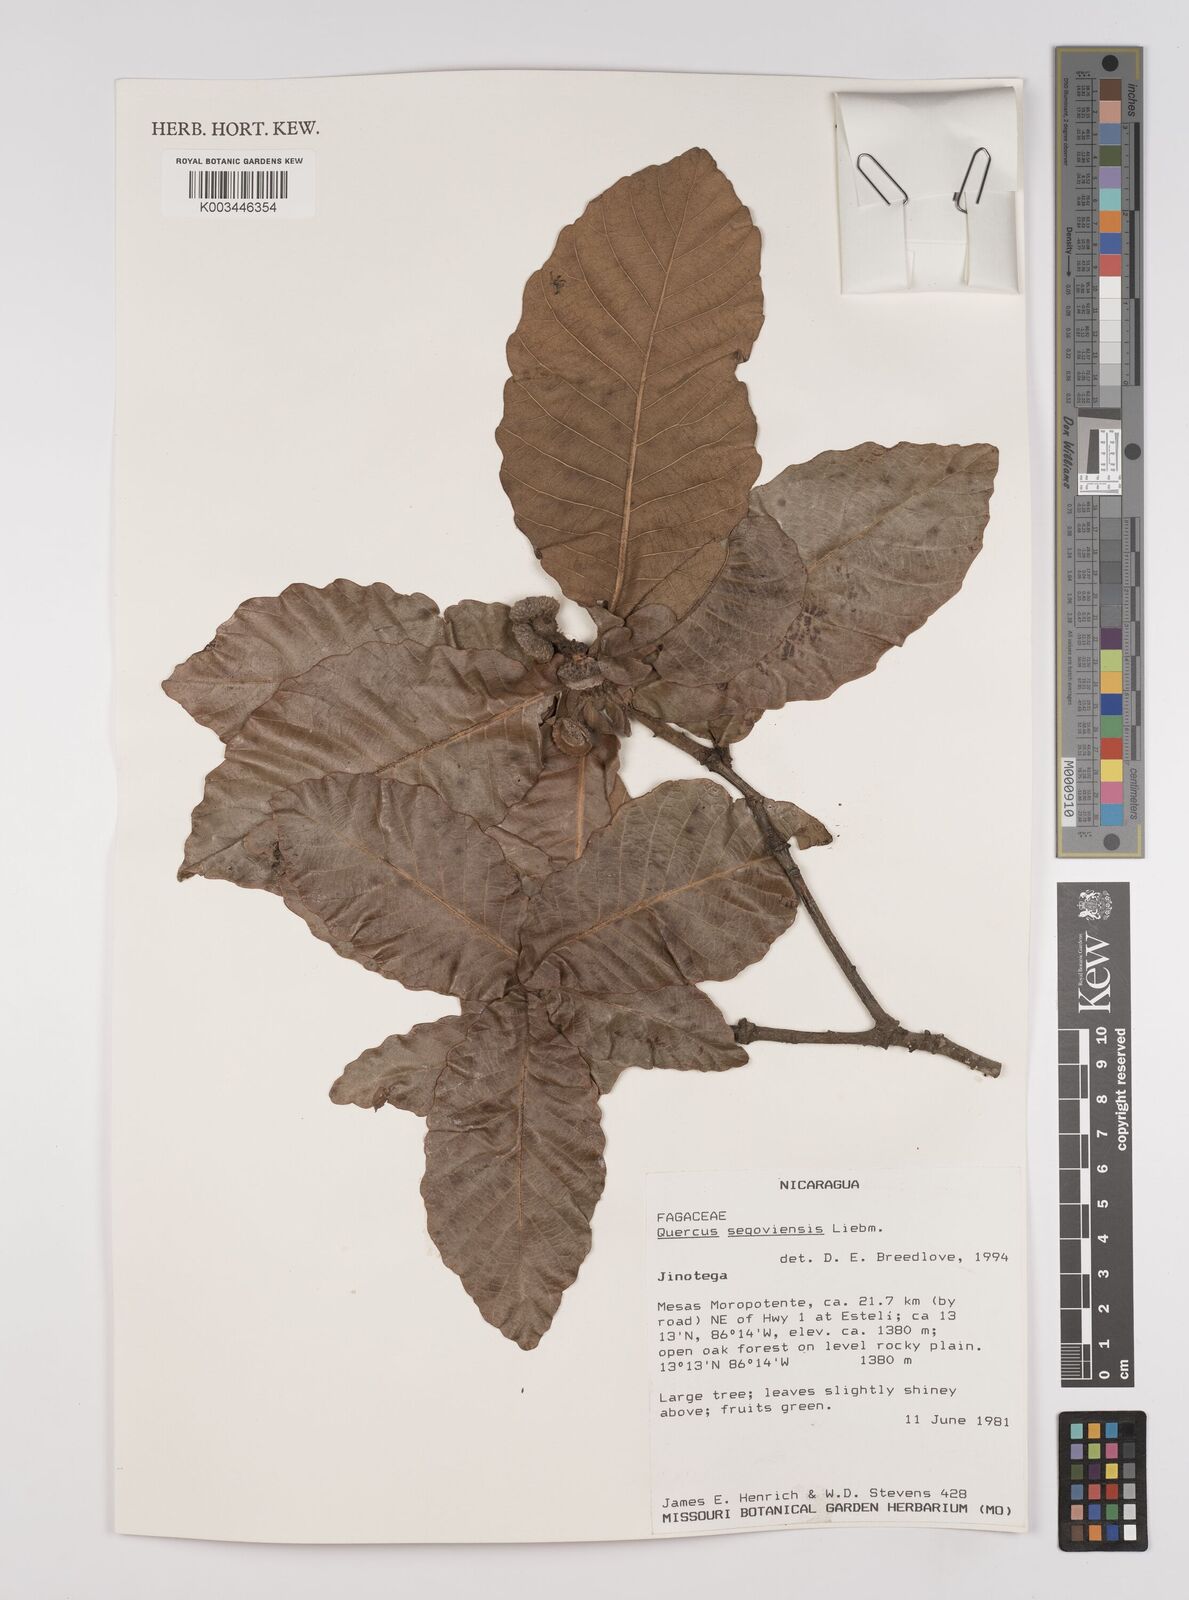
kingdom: Plantae
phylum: Tracheophyta
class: Magnoliopsida
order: Fagales
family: Fagaceae
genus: Quercus
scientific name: Quercus segoviensis
